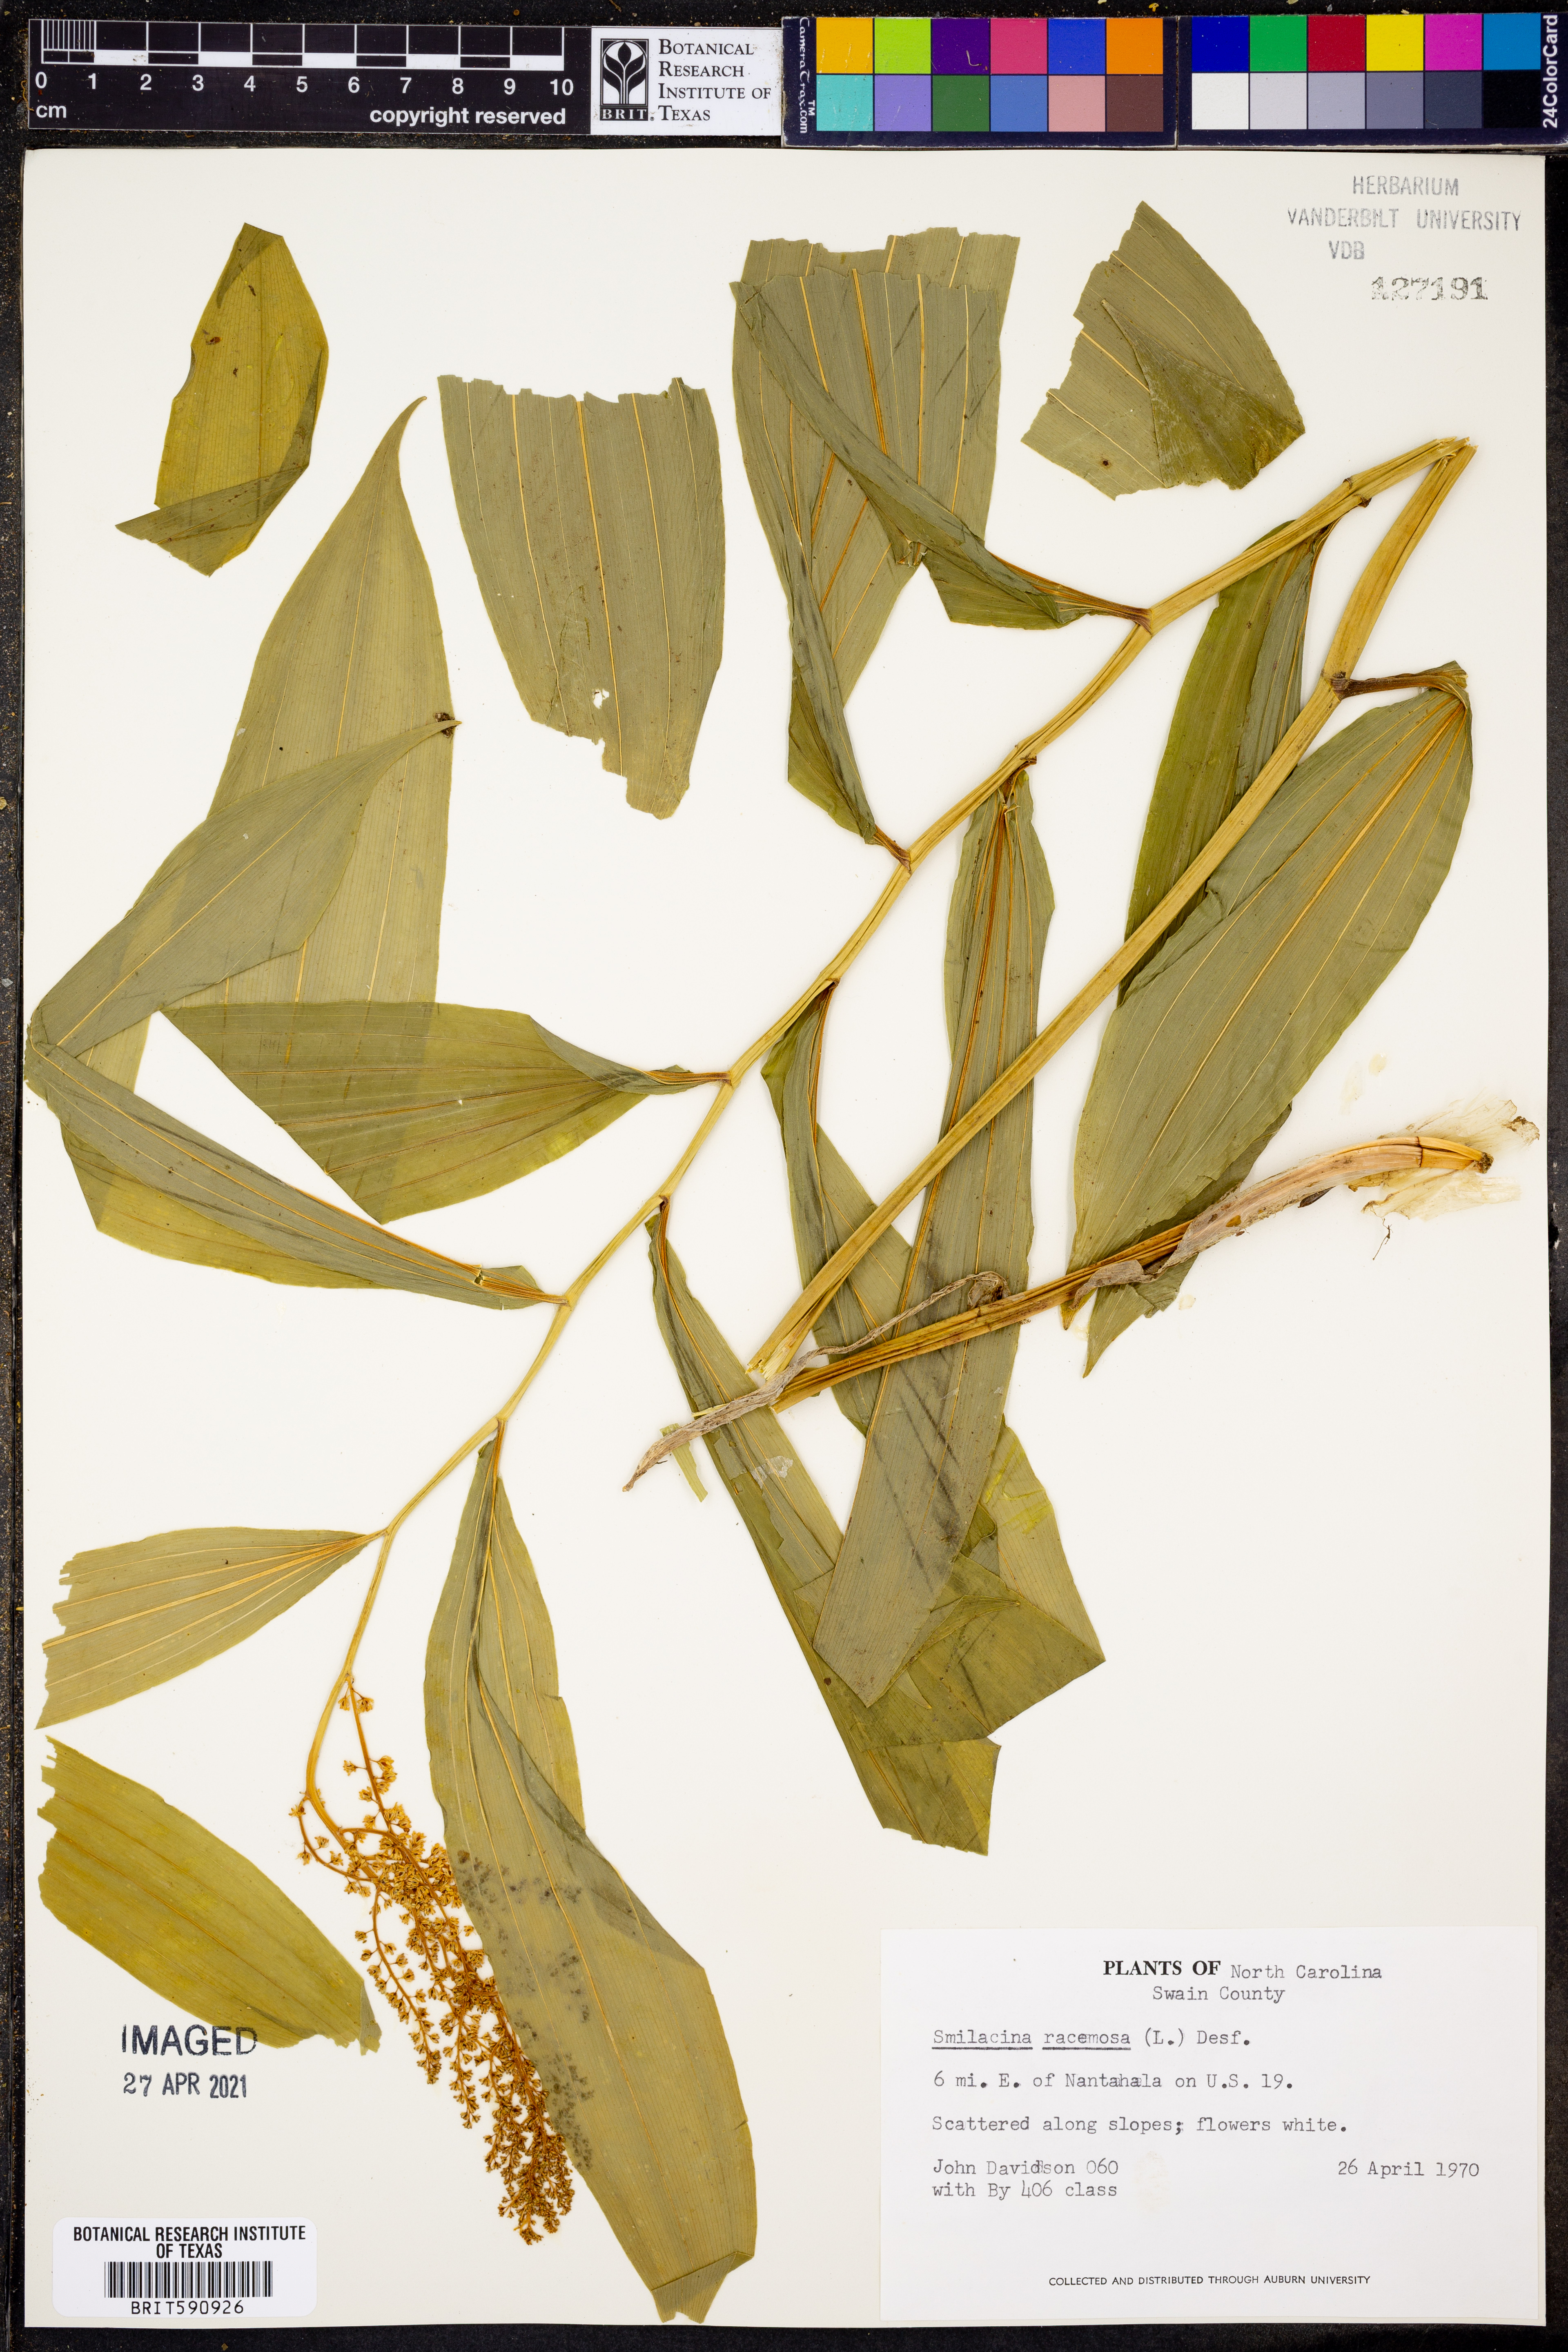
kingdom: Plantae
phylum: Tracheophyta
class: Liliopsida
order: Asparagales
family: Asparagaceae
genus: Maianthemum
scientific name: Maianthemum racemosum
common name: False spikenard
